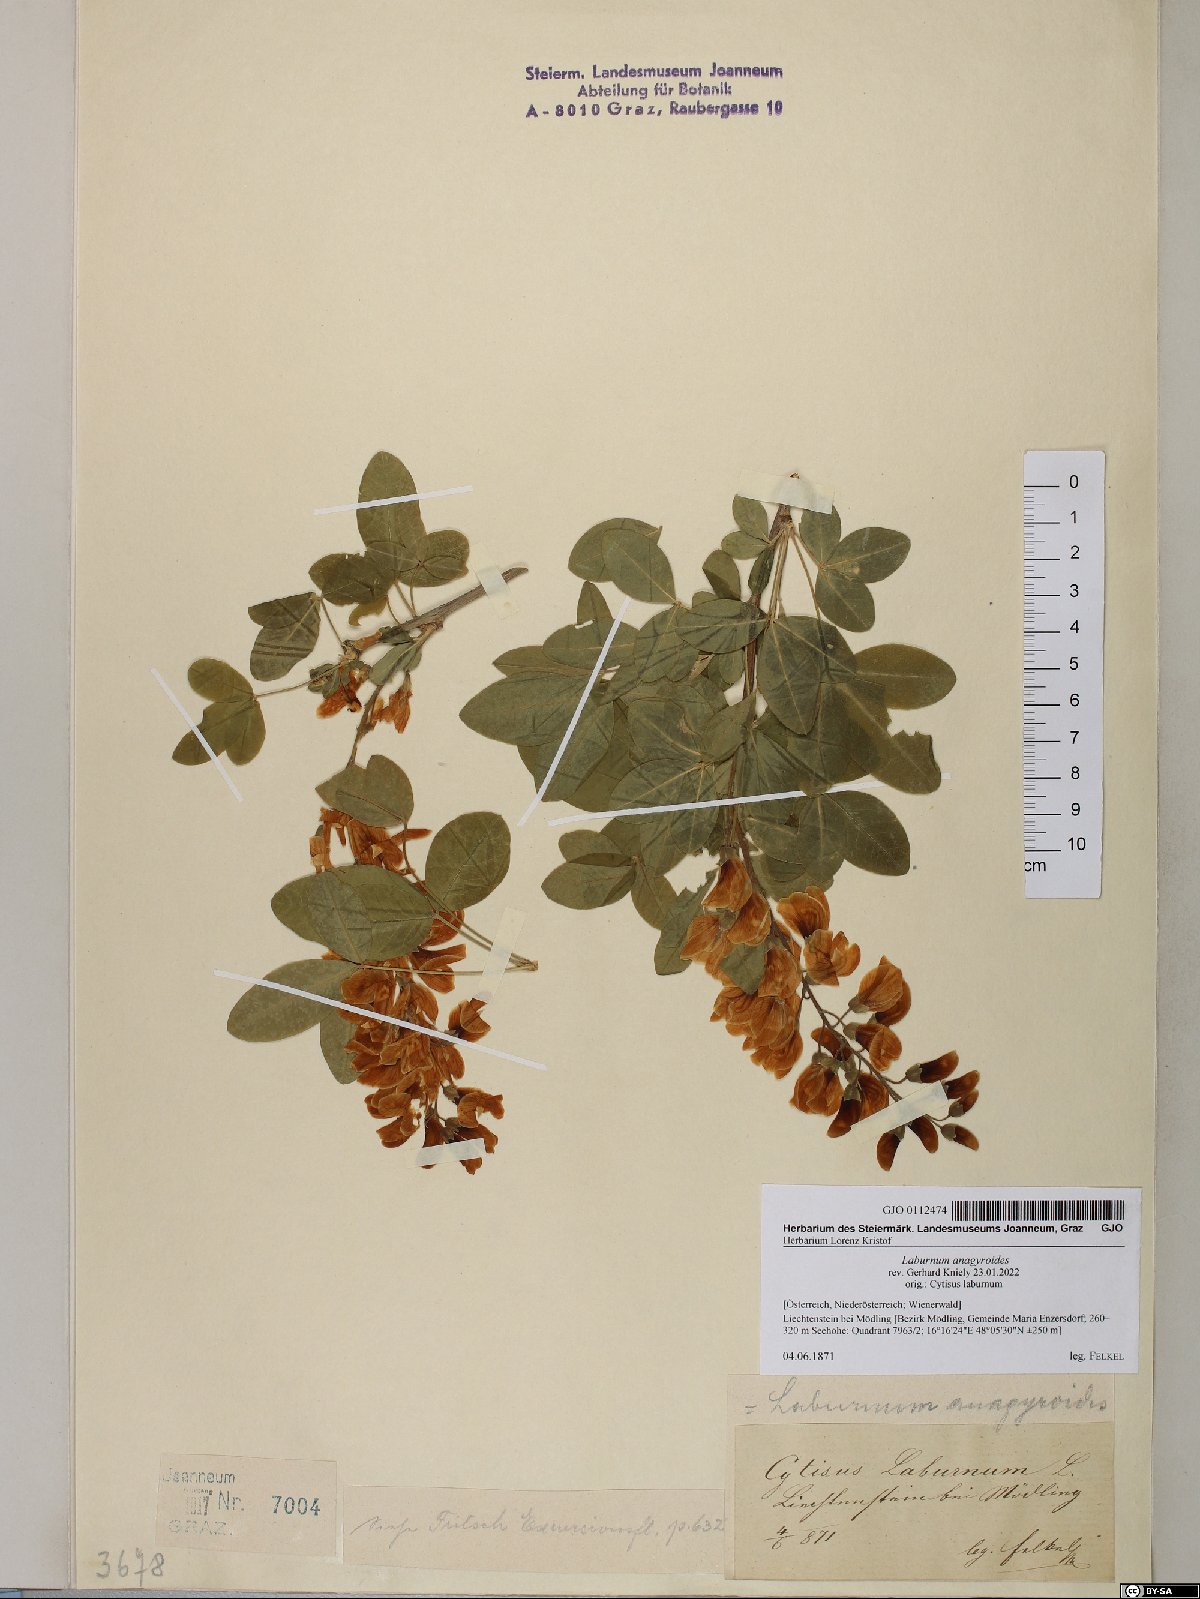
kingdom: Plantae
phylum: Tracheophyta
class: Magnoliopsida
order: Fabales
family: Fabaceae
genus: Laburnum
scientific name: Laburnum anagyroides
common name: Laburnum
